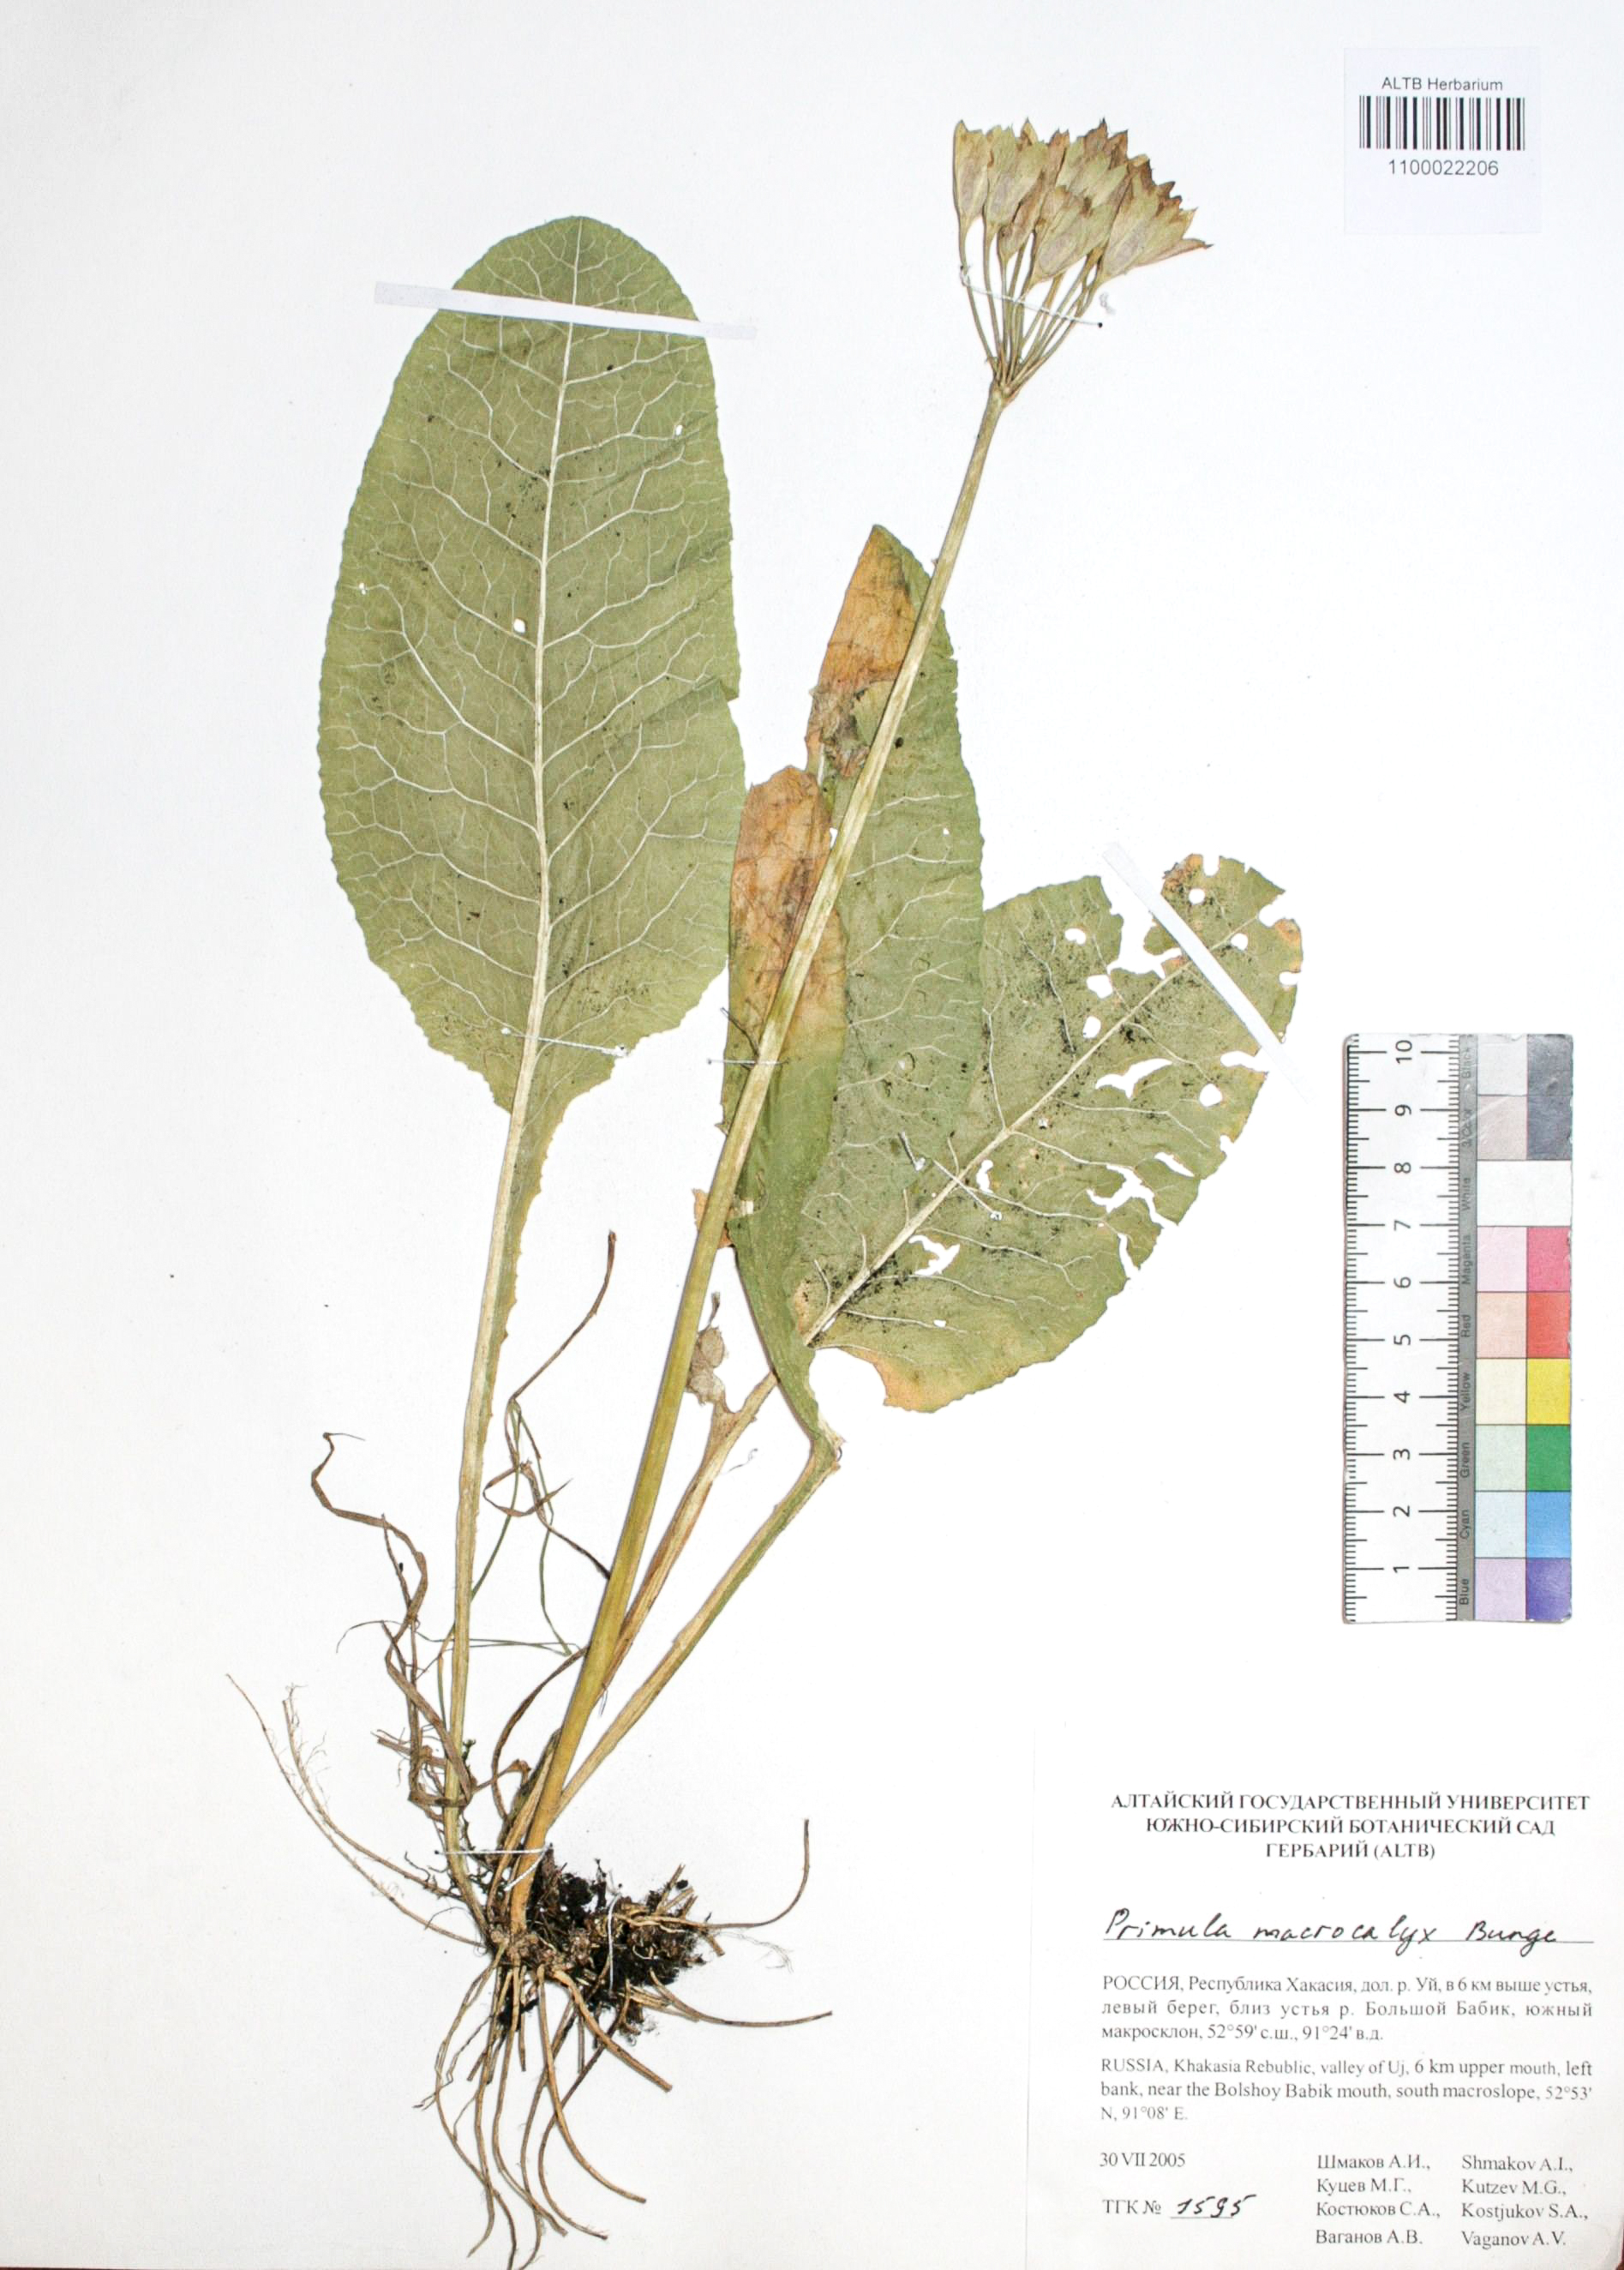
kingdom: Plantae
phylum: Tracheophyta
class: Magnoliopsida
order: Ericales
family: Primulaceae
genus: Primula
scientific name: Primula veris
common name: Cowslip
